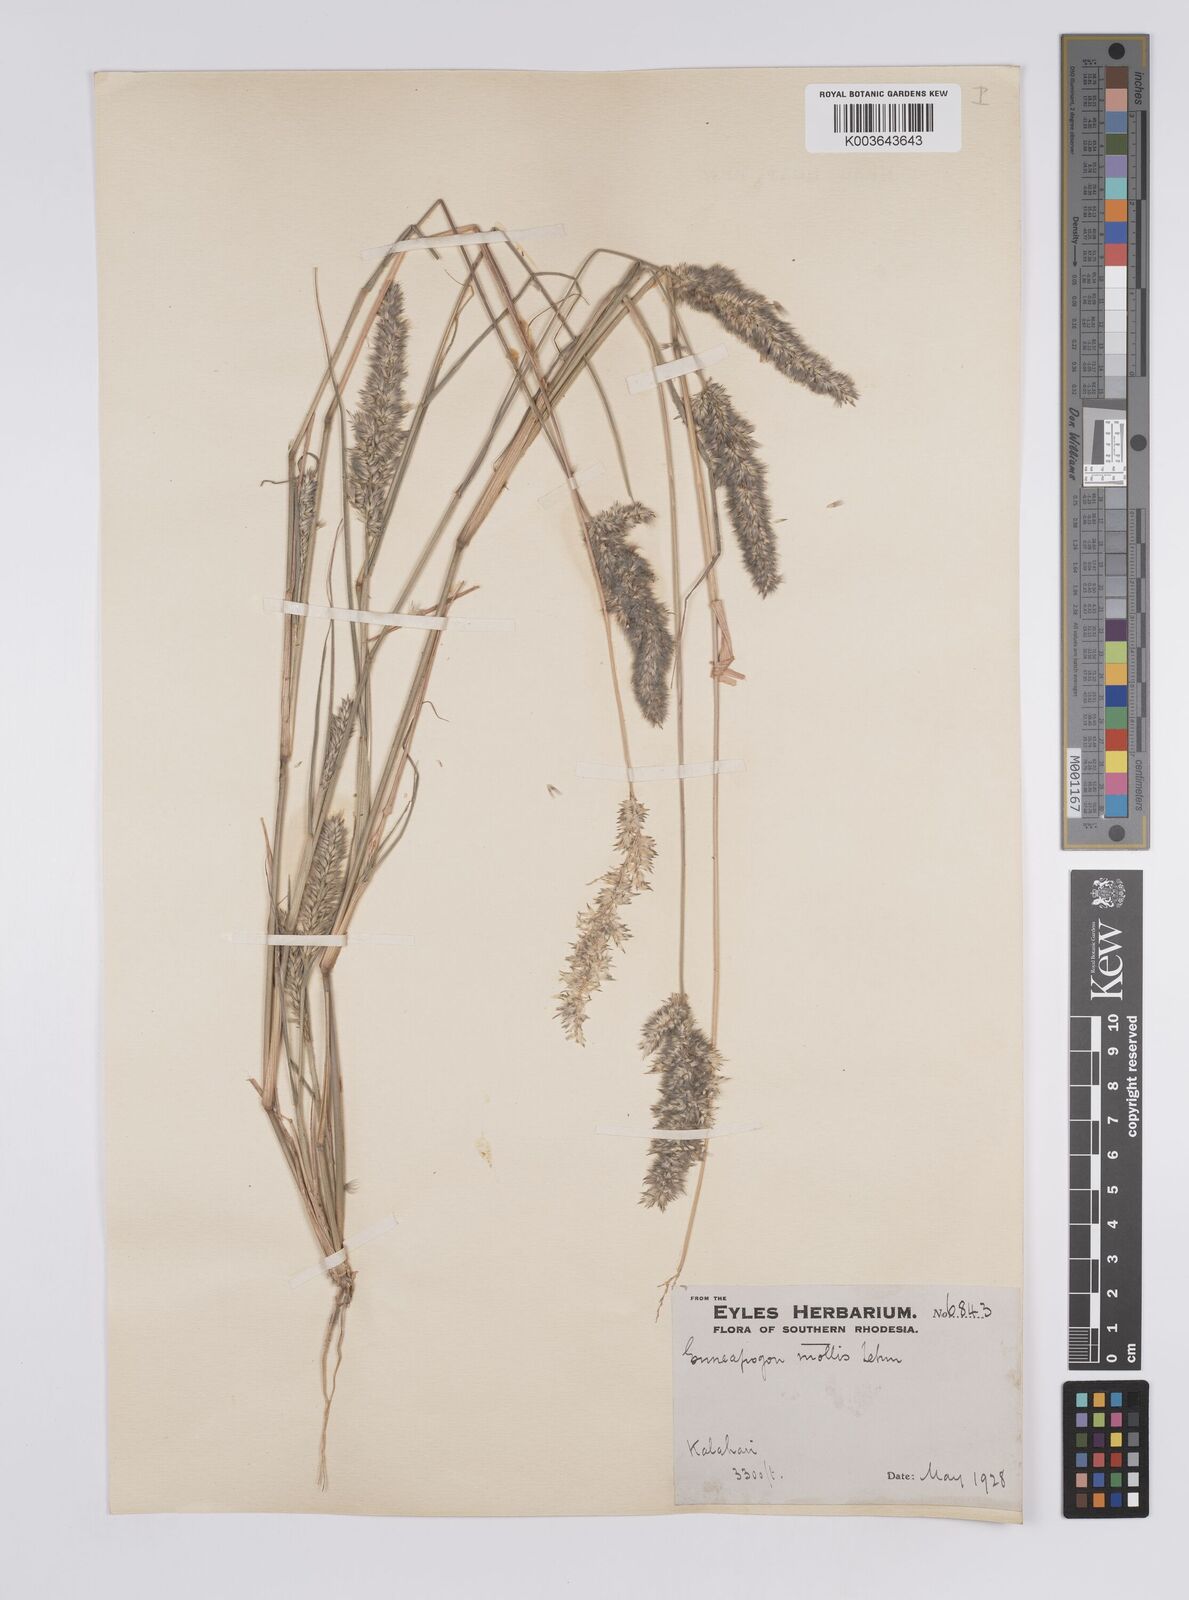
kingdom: Plantae
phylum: Tracheophyta
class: Liliopsida
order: Poales
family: Poaceae
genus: Enneapogon
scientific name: Enneapogon cenchroides
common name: Soft feather pappusgrass
